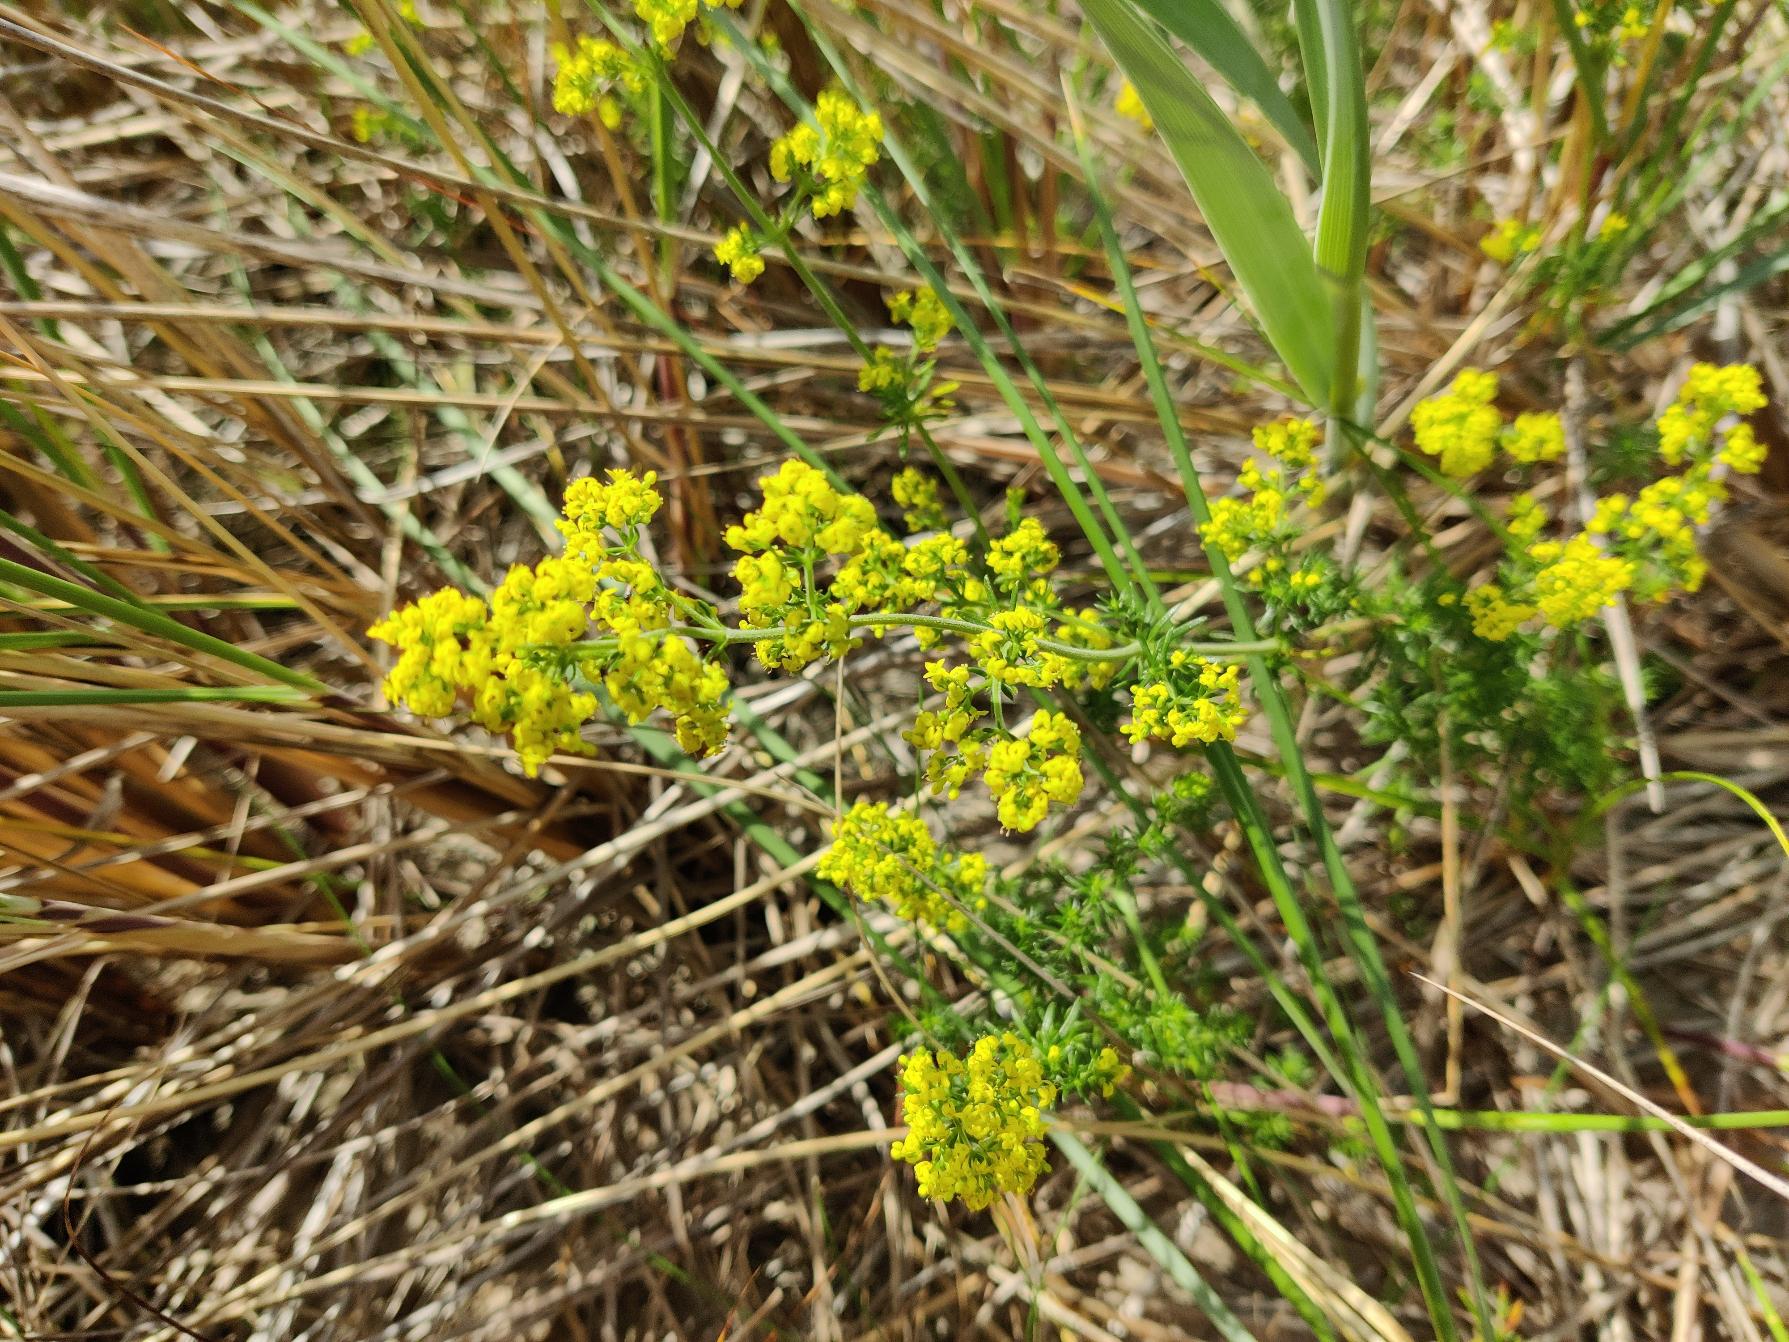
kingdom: Plantae
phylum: Tracheophyta
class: Magnoliopsida
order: Gentianales
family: Rubiaceae
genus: Galium
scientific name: Galium verum
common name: Gul snerre
